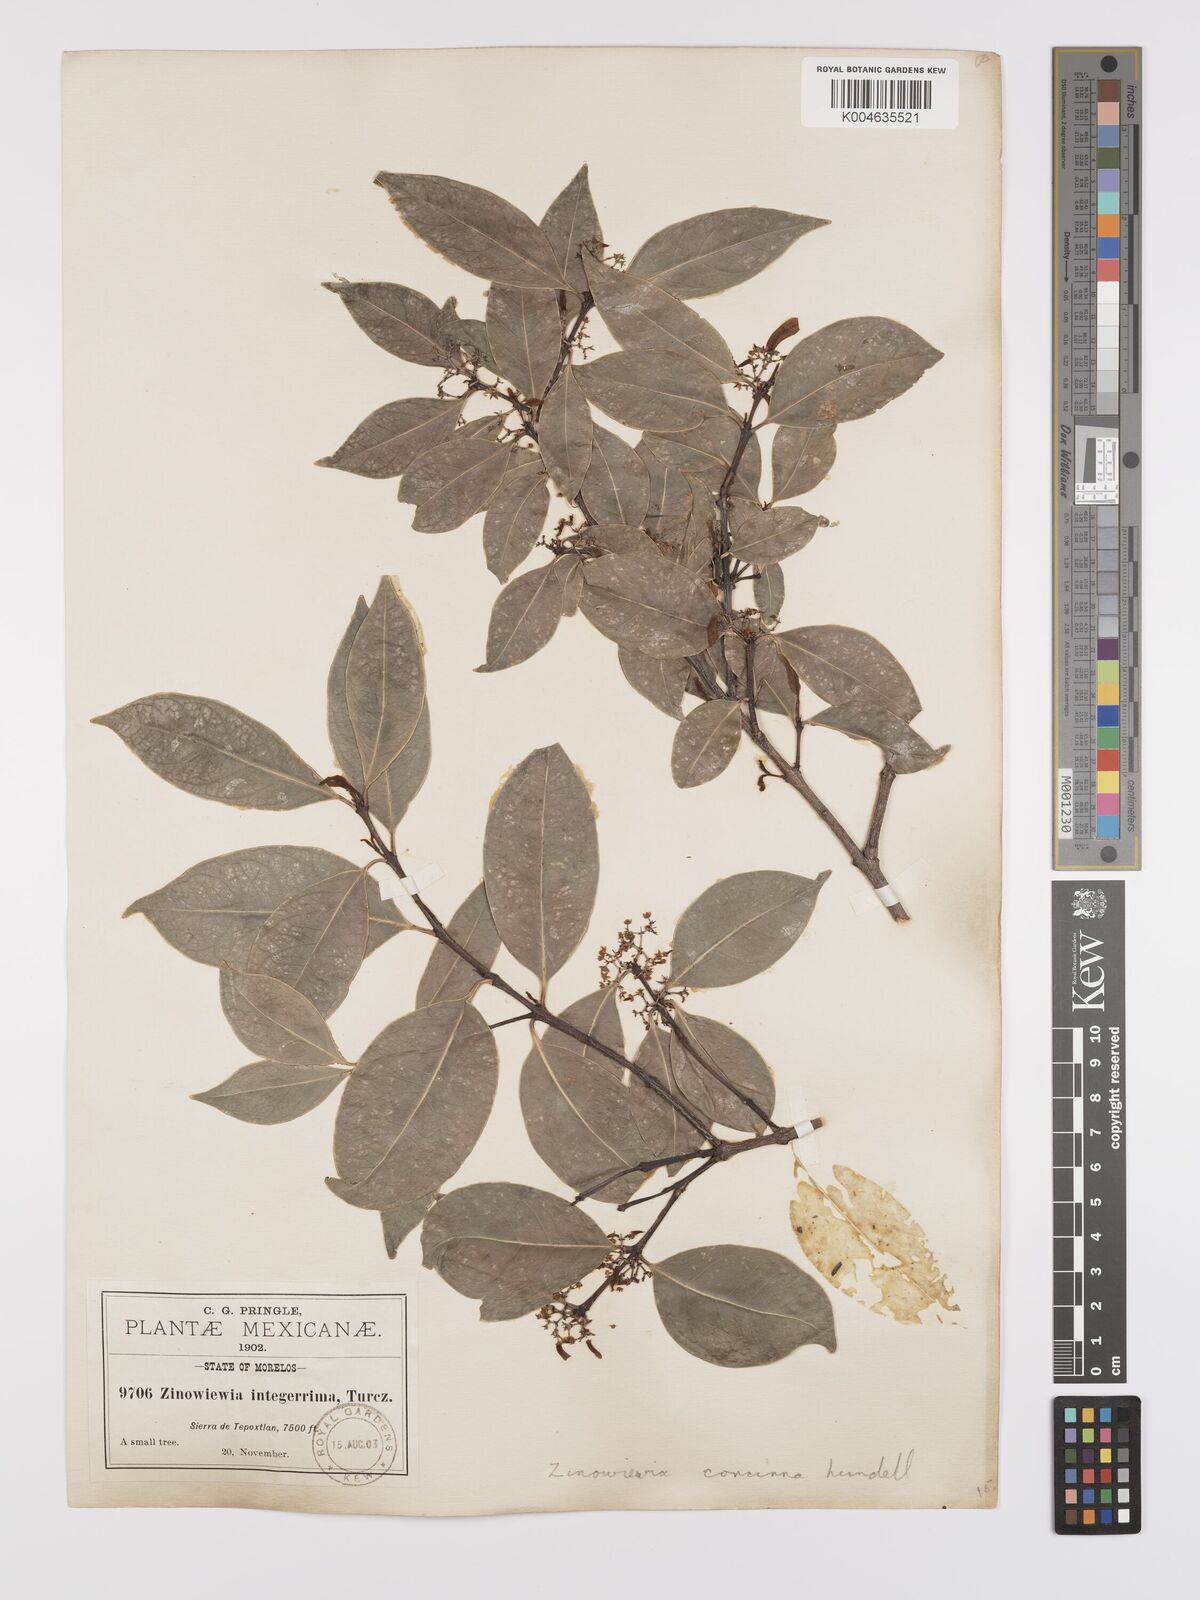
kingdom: Plantae
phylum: Tracheophyta
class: Magnoliopsida
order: Celastrales
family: Celastraceae
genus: Zinowiewia
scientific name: Zinowiewia concinna
